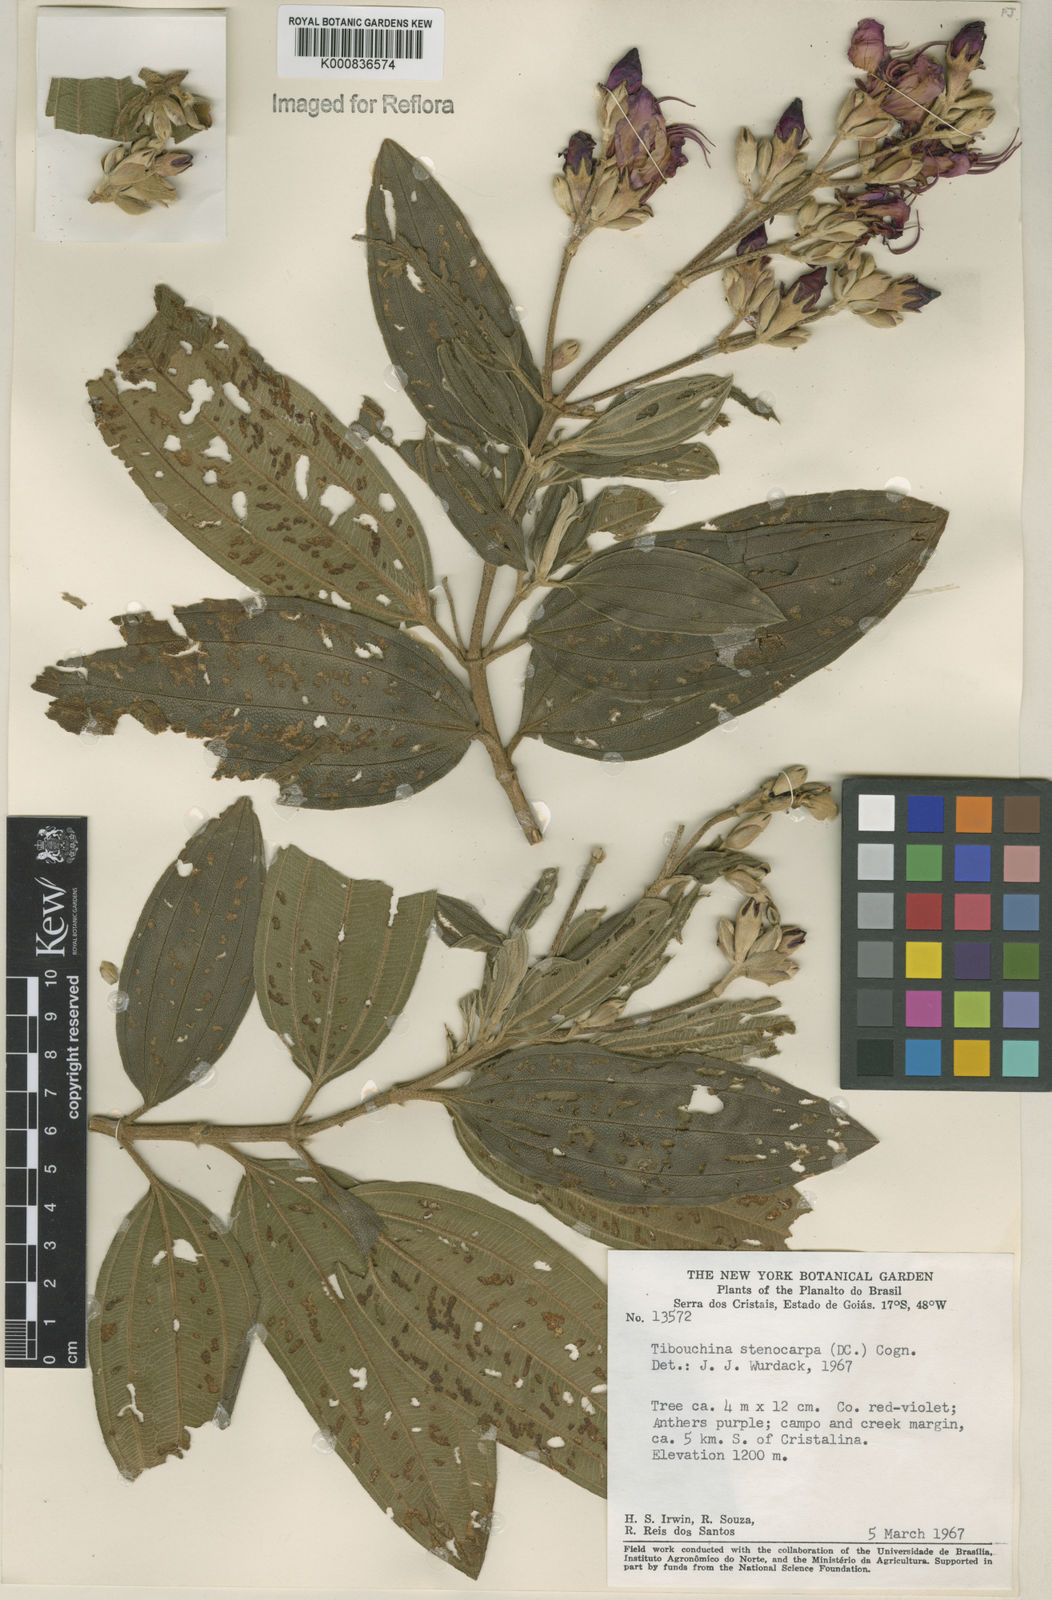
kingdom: Plantae
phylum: Tracheophyta
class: Magnoliopsida
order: Myrtales
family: Melastomataceae
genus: Pleroma
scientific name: Pleroma stenocarpum
